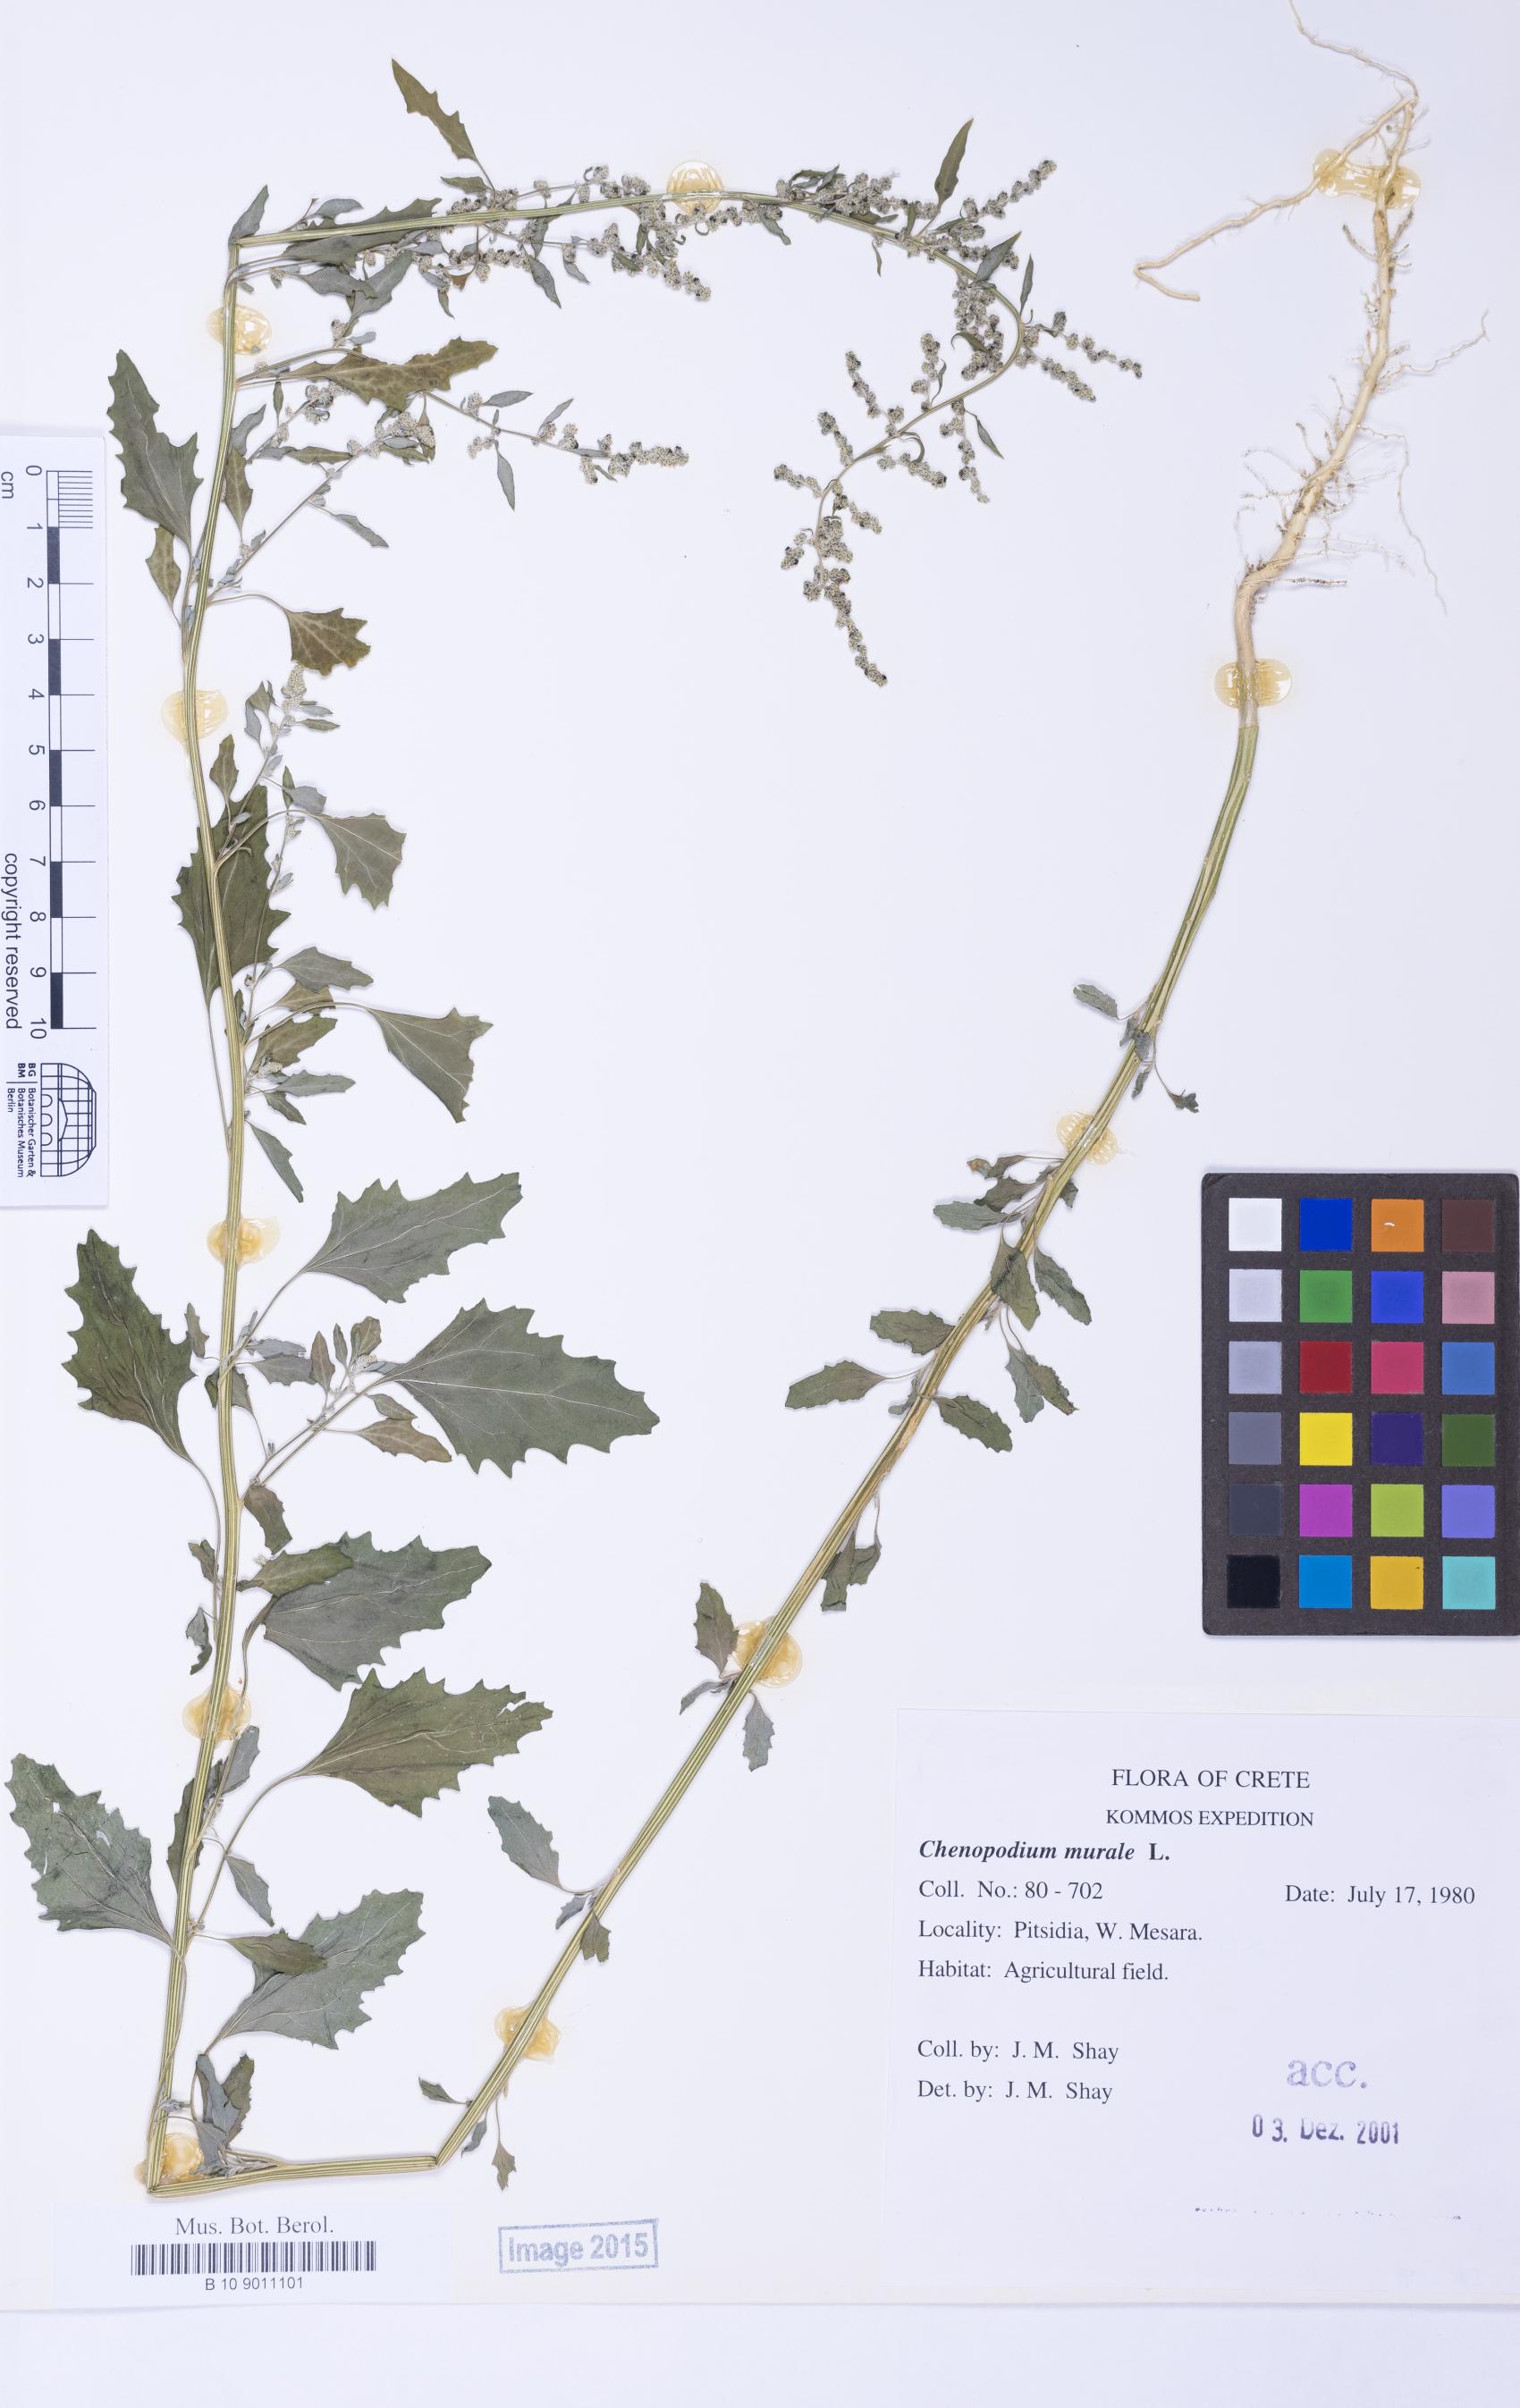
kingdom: Plantae
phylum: Tracheophyta
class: Magnoliopsida
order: Caryophyllales
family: Amaranthaceae
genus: Chenopodium
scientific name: Chenopodium album
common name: Fat-hen
